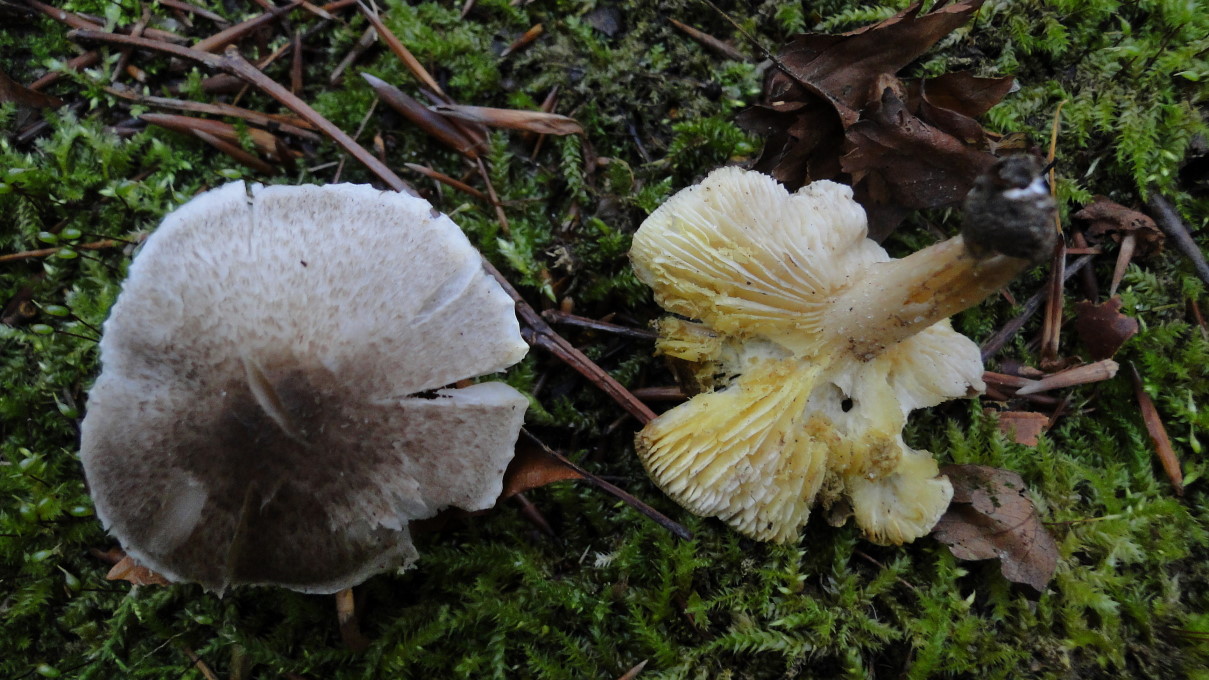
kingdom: Fungi
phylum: Basidiomycota
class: Agaricomycetes
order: Agaricales
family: Tricholomataceae
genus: Tricholoma
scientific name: Tricholoma terreum
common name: jordfarvet ridderhat
